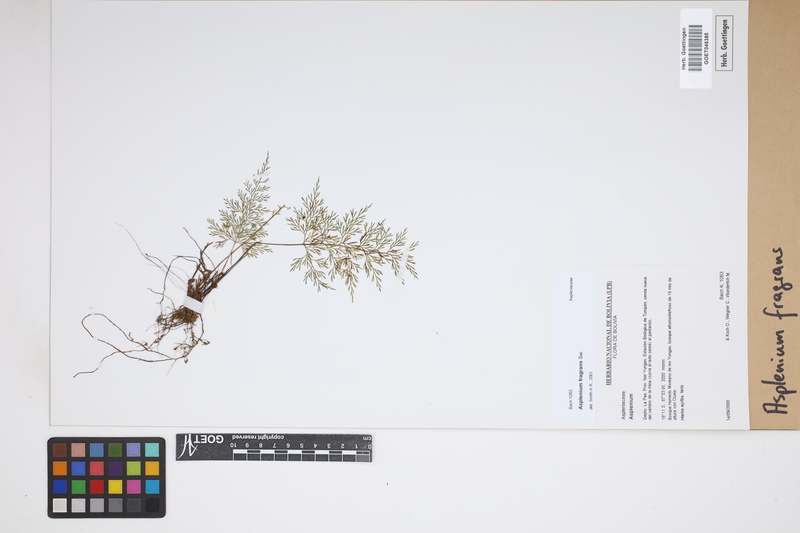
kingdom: Plantae
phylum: Tracheophyta
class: Polypodiopsida
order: Polypodiales
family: Aspleniaceae
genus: Asplenium
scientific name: Asplenium fragrans
